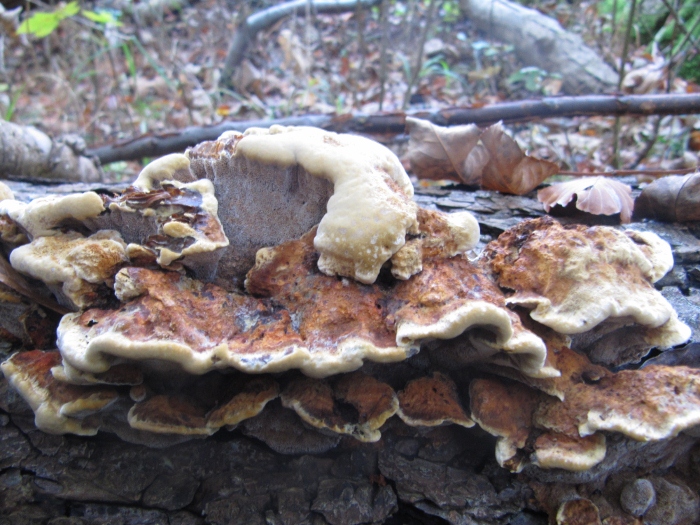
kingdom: Fungi
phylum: Basidiomycota
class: Agaricomycetes
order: Hymenochaetales
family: Hymenochaetaceae
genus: Xanthoporia
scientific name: Xanthoporia radiata
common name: elle-spejlporesvamp
